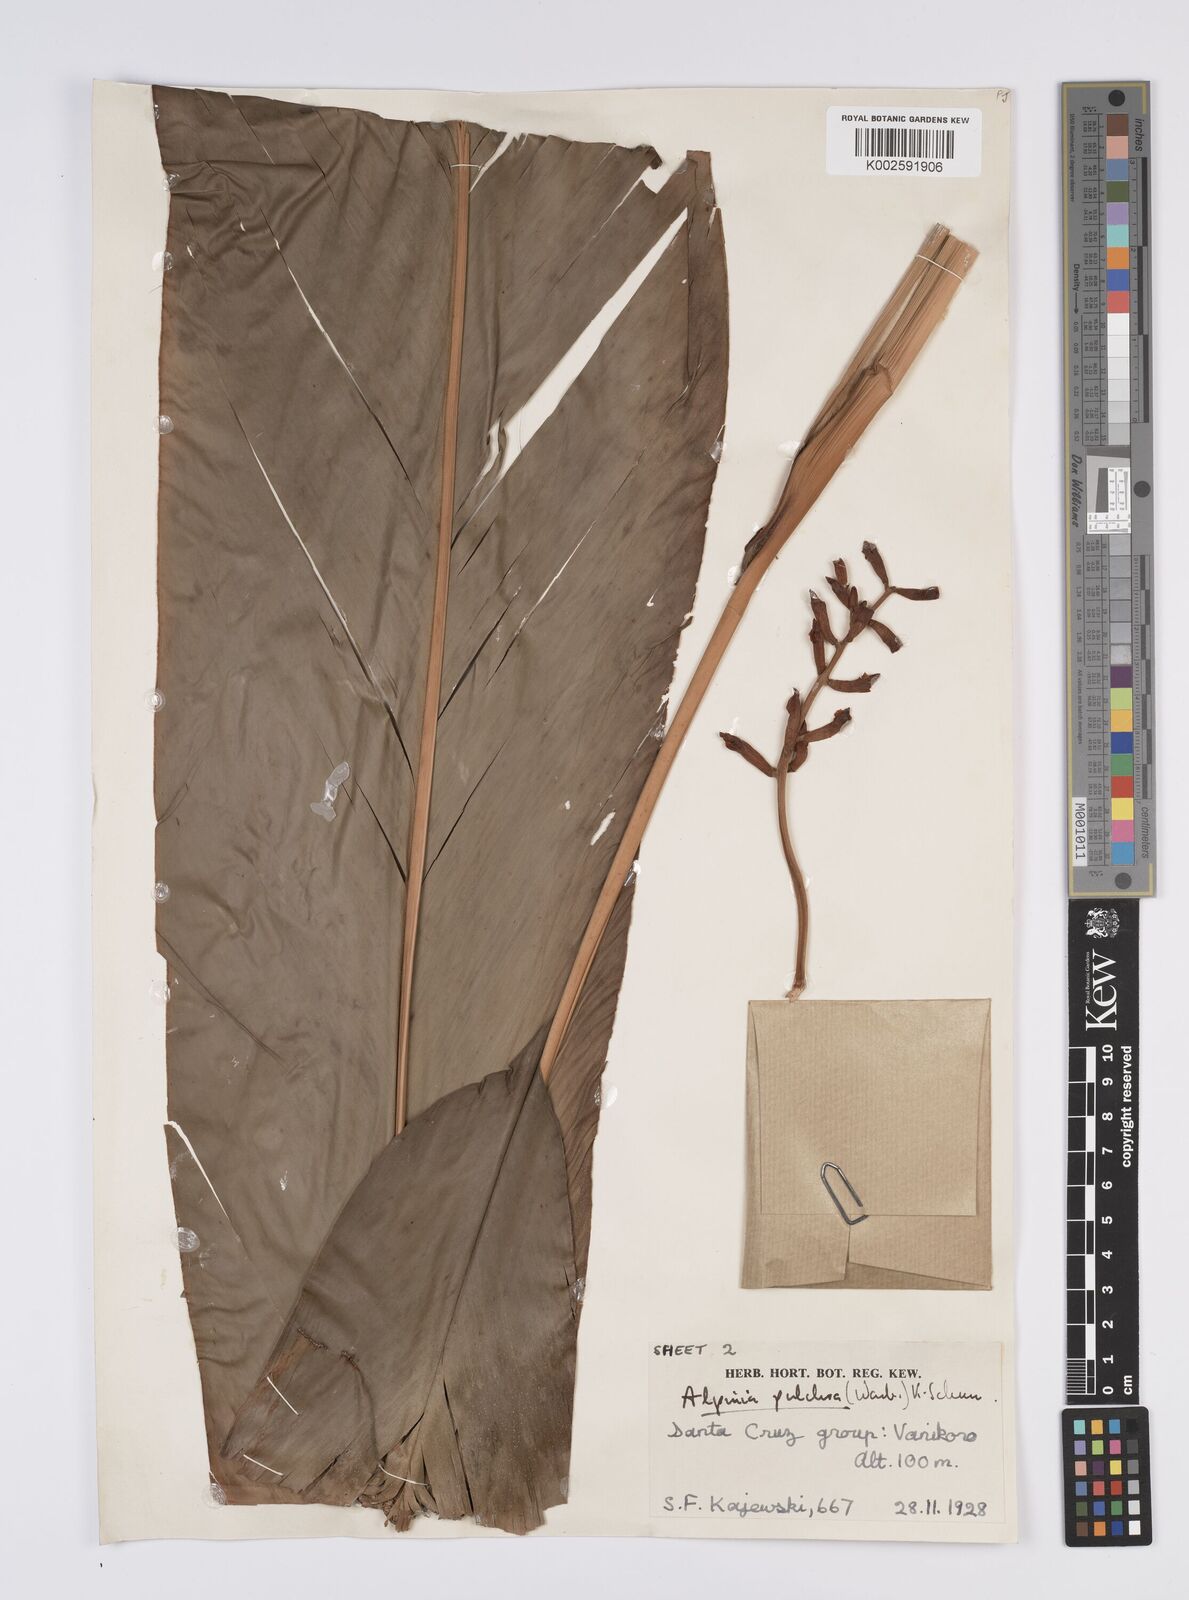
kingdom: Plantae
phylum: Tracheophyta
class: Liliopsida
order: Zingiberales
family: Zingiberaceae
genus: Alpinia
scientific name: Alpinia pulchra
